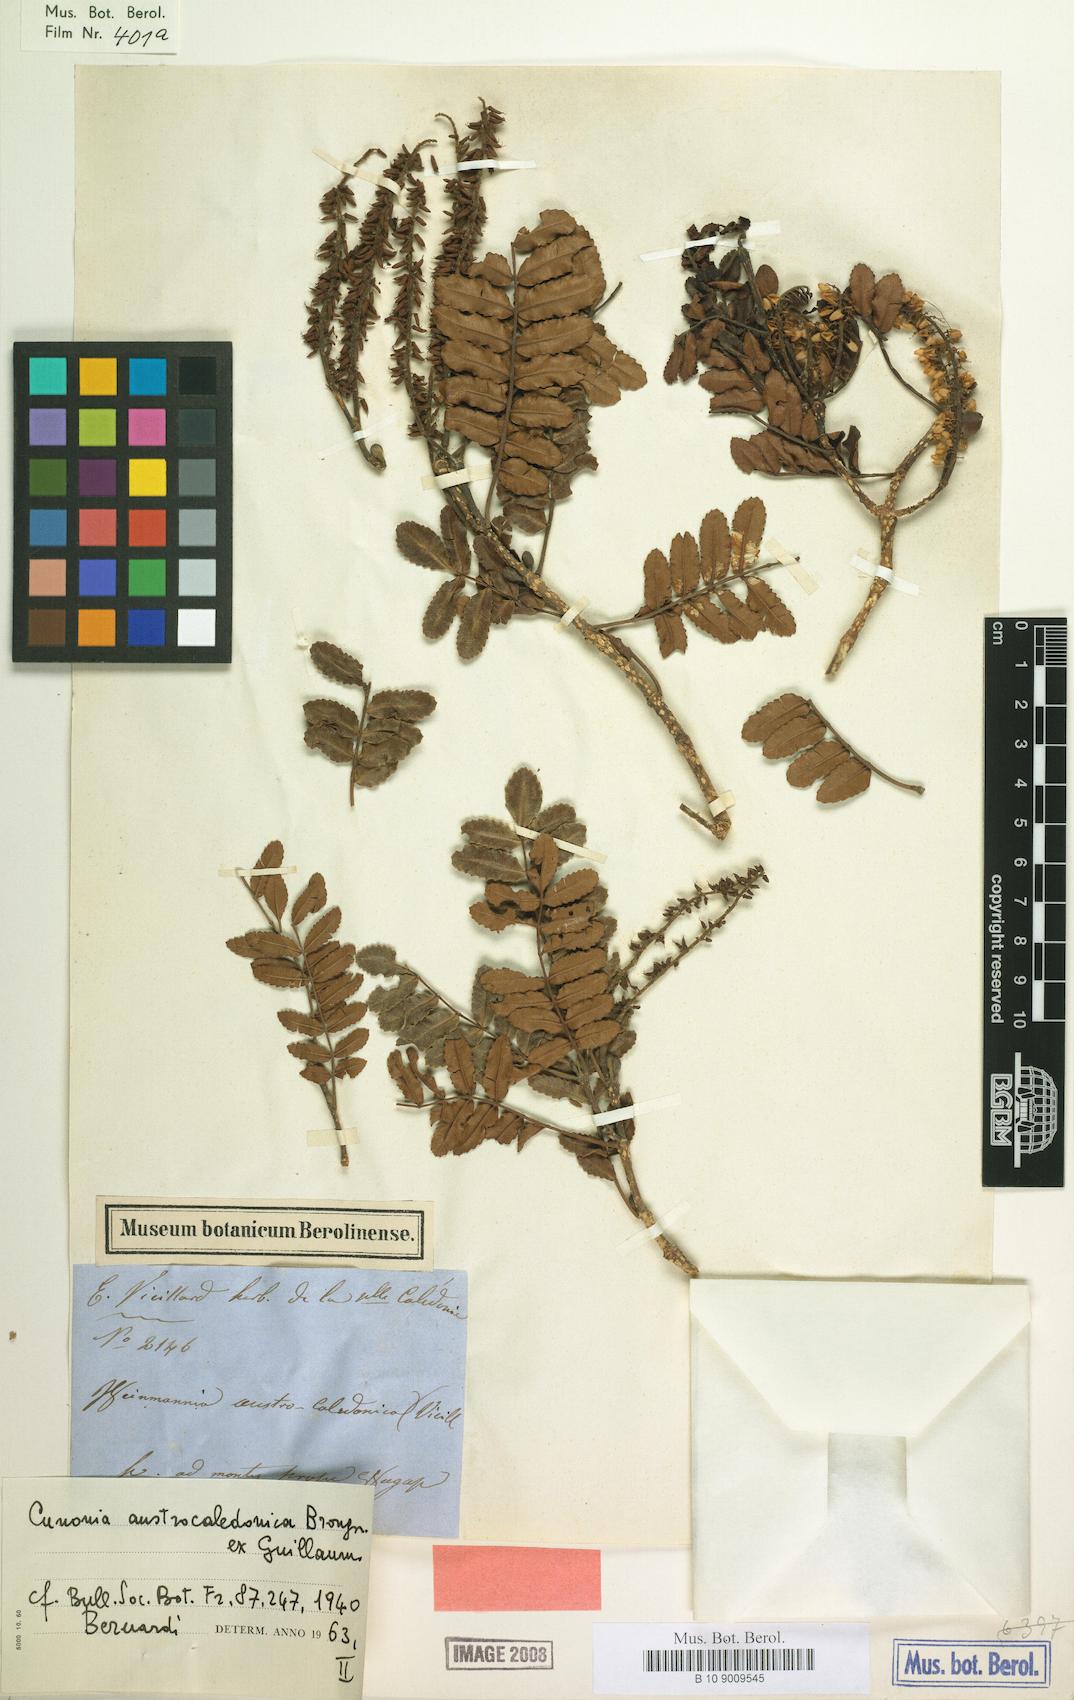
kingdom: Plantae
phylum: Tracheophyta
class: Magnoliopsida
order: Oxalidales
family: Cunoniaceae
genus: Cunonia
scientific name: Cunonia austrocaledonica
